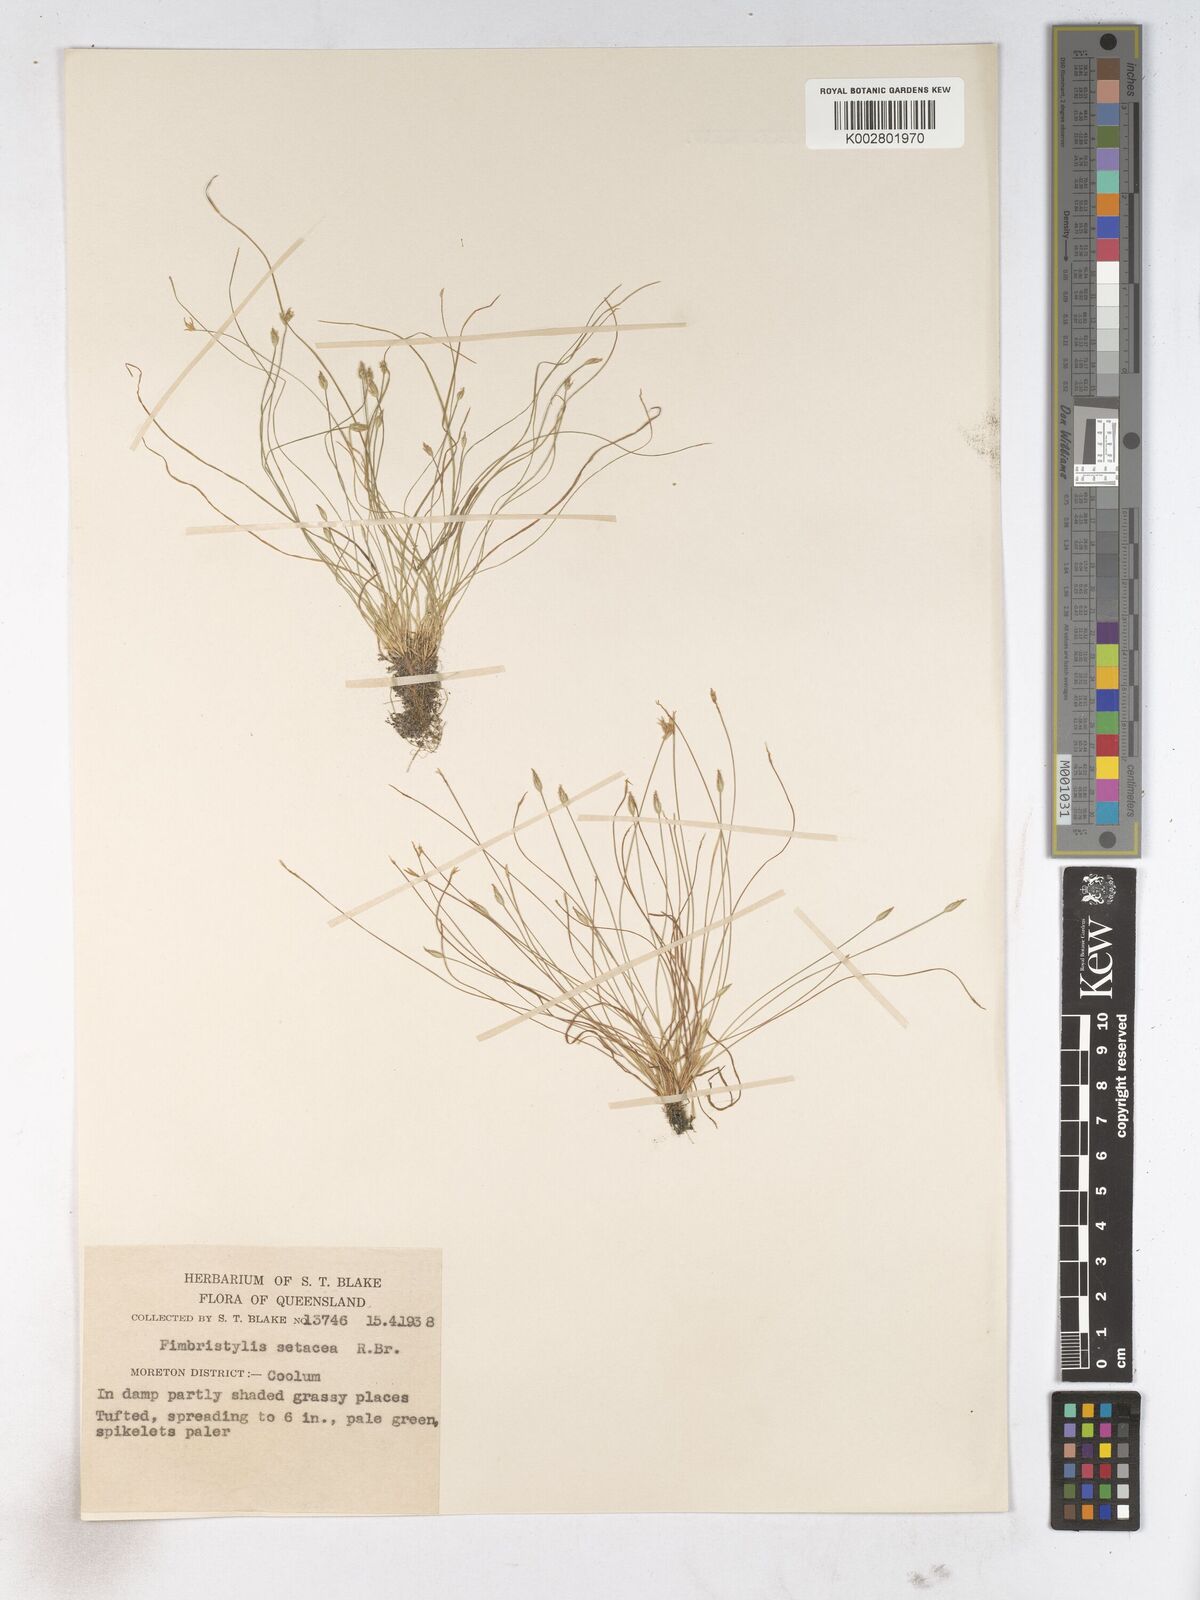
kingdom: Plantae
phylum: Tracheophyta
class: Liliopsida
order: Poales
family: Cyperaceae
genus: Fimbristylis
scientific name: Fimbristylis acicularis
